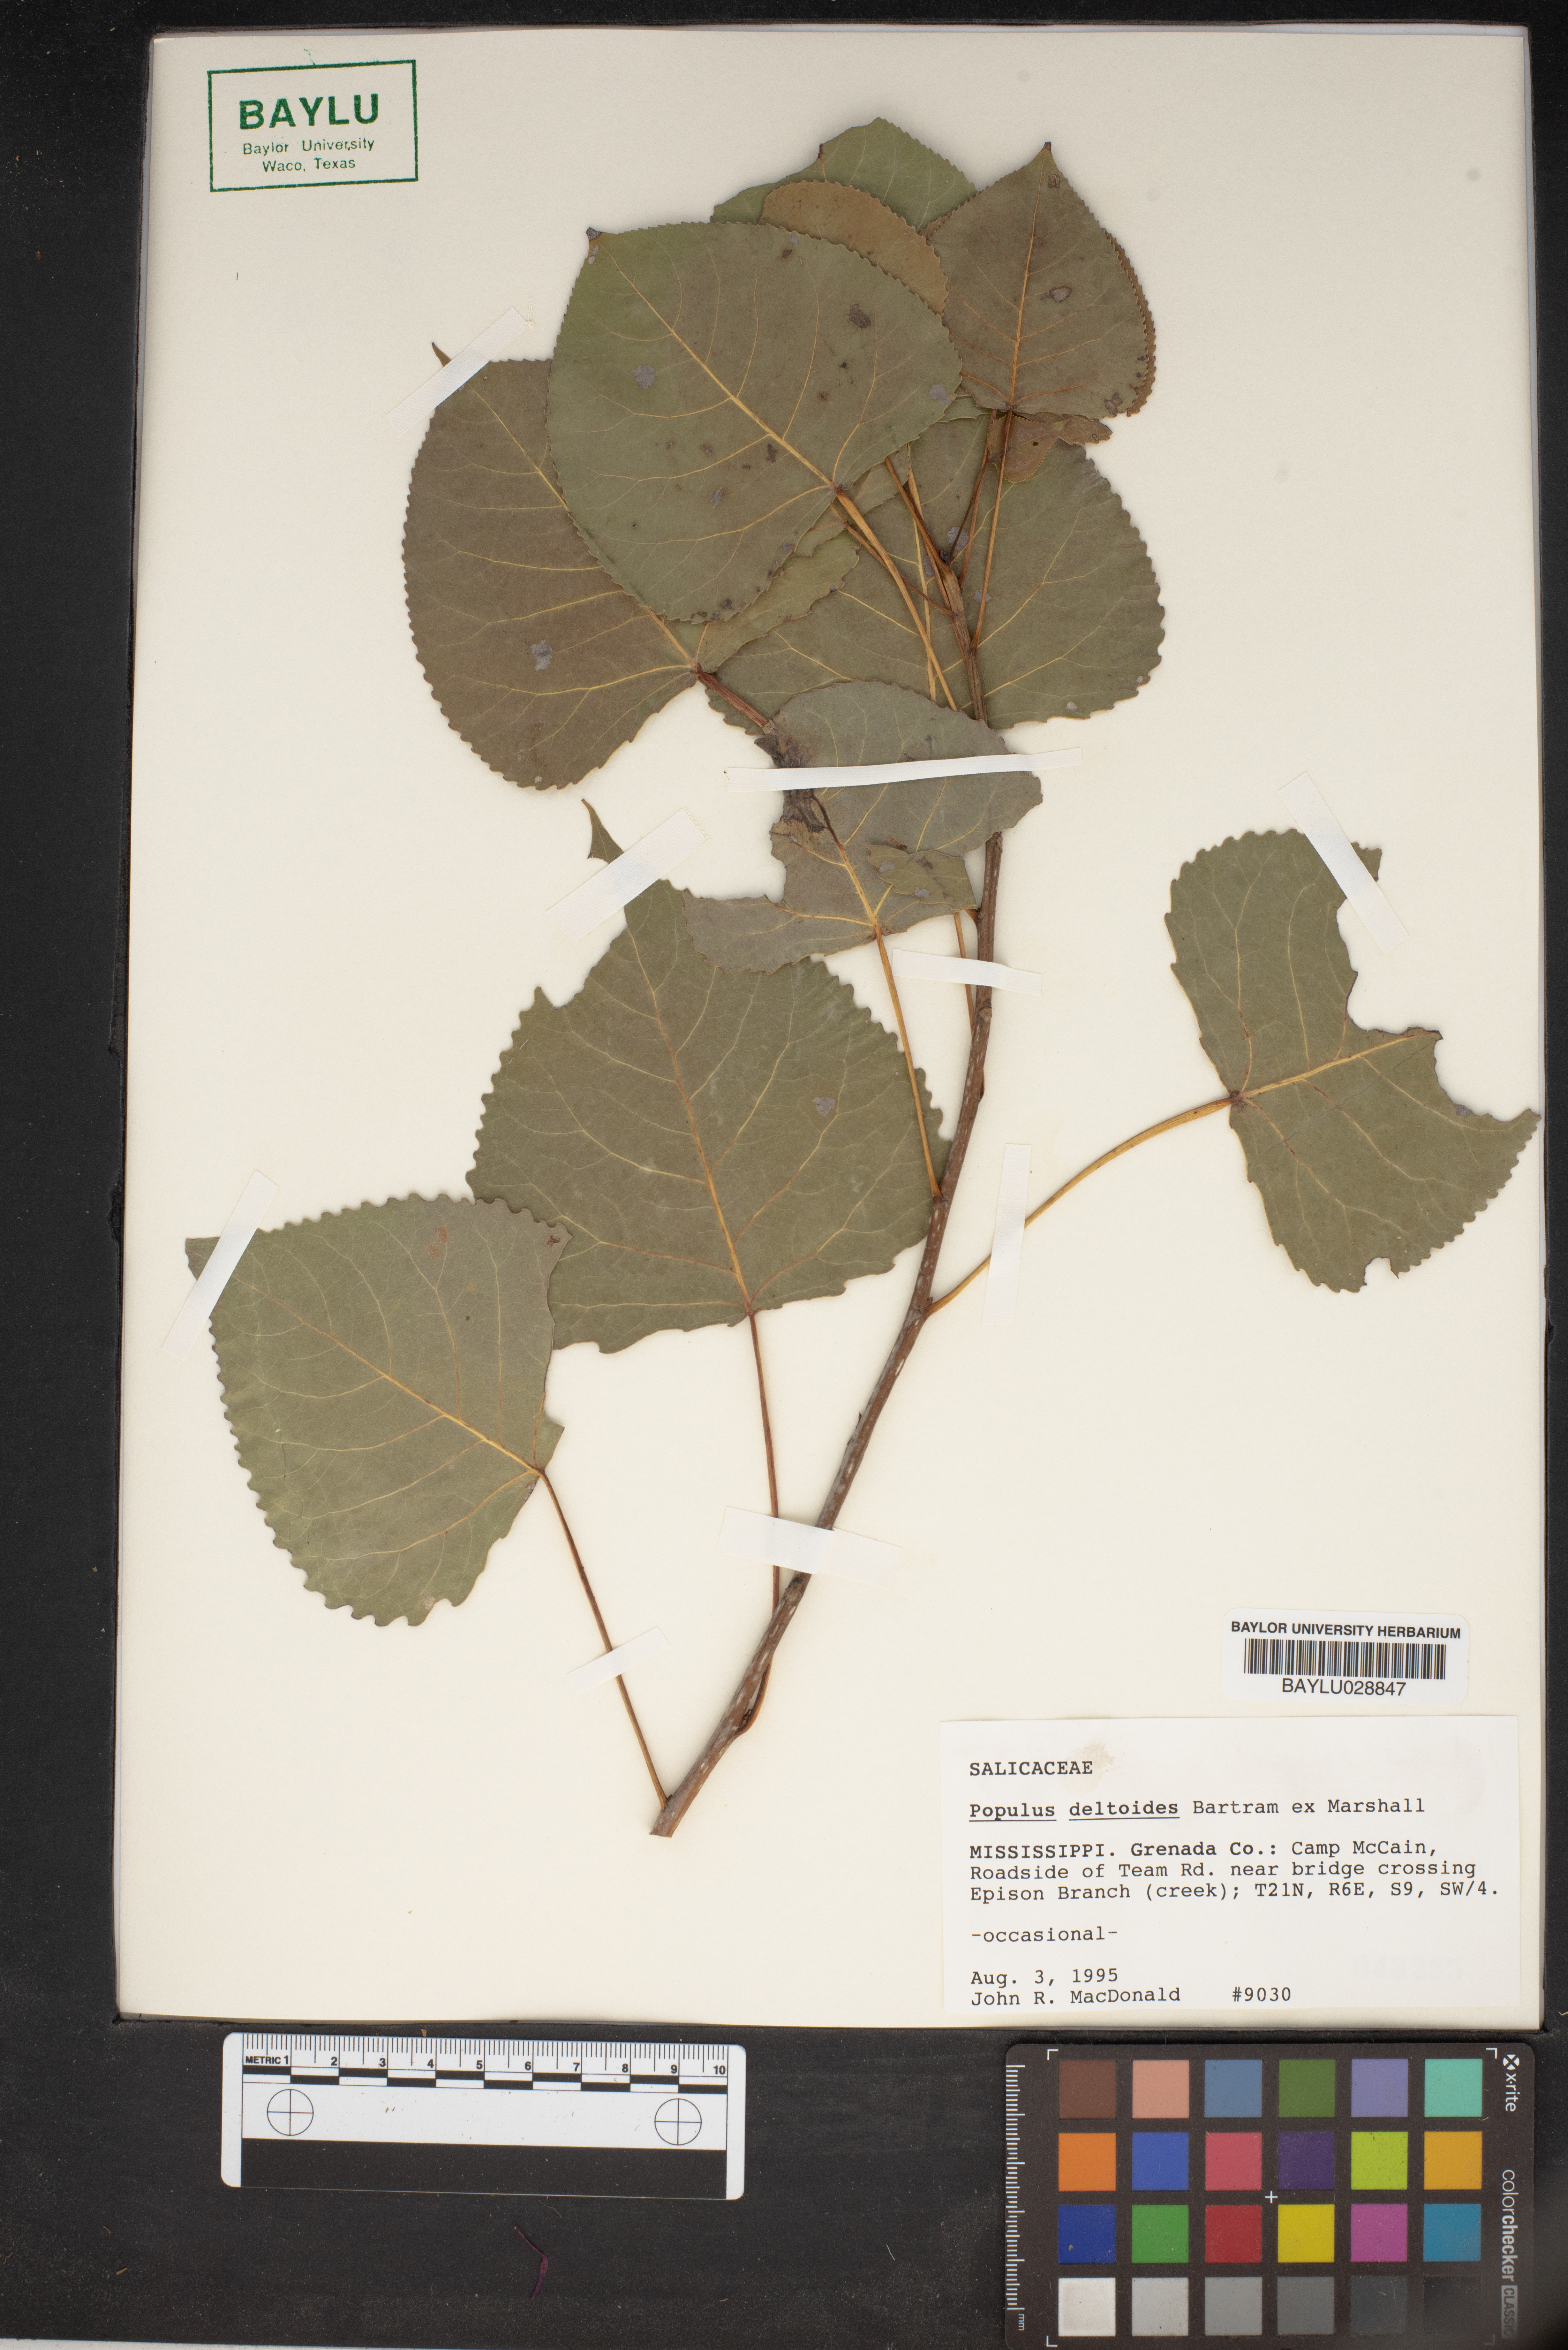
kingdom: Plantae
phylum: Tracheophyta
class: Magnoliopsida
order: Malpighiales
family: Salicaceae
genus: Populus
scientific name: Populus deltoides
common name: Eastern cottonwood
